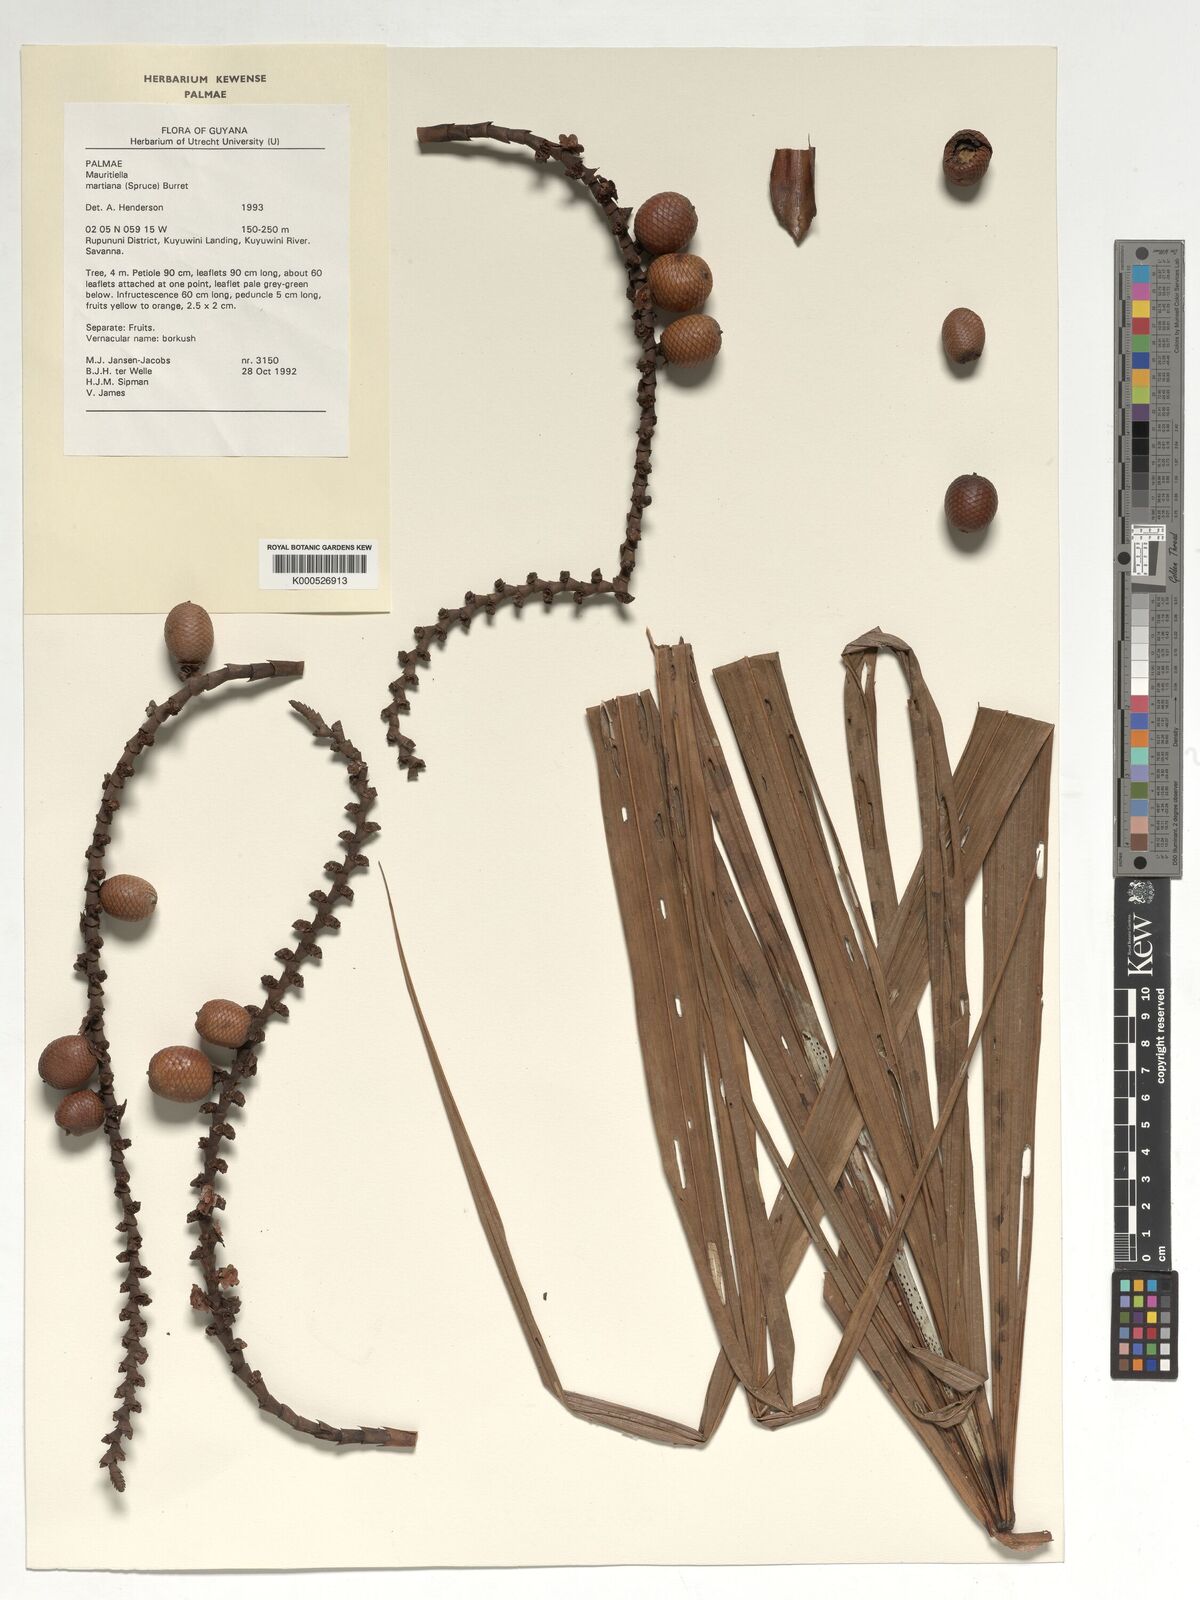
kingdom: Plantae
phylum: Tracheophyta
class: Liliopsida
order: Arecales
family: Arecaceae
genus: Mauritiella
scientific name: Mauritiella armata
